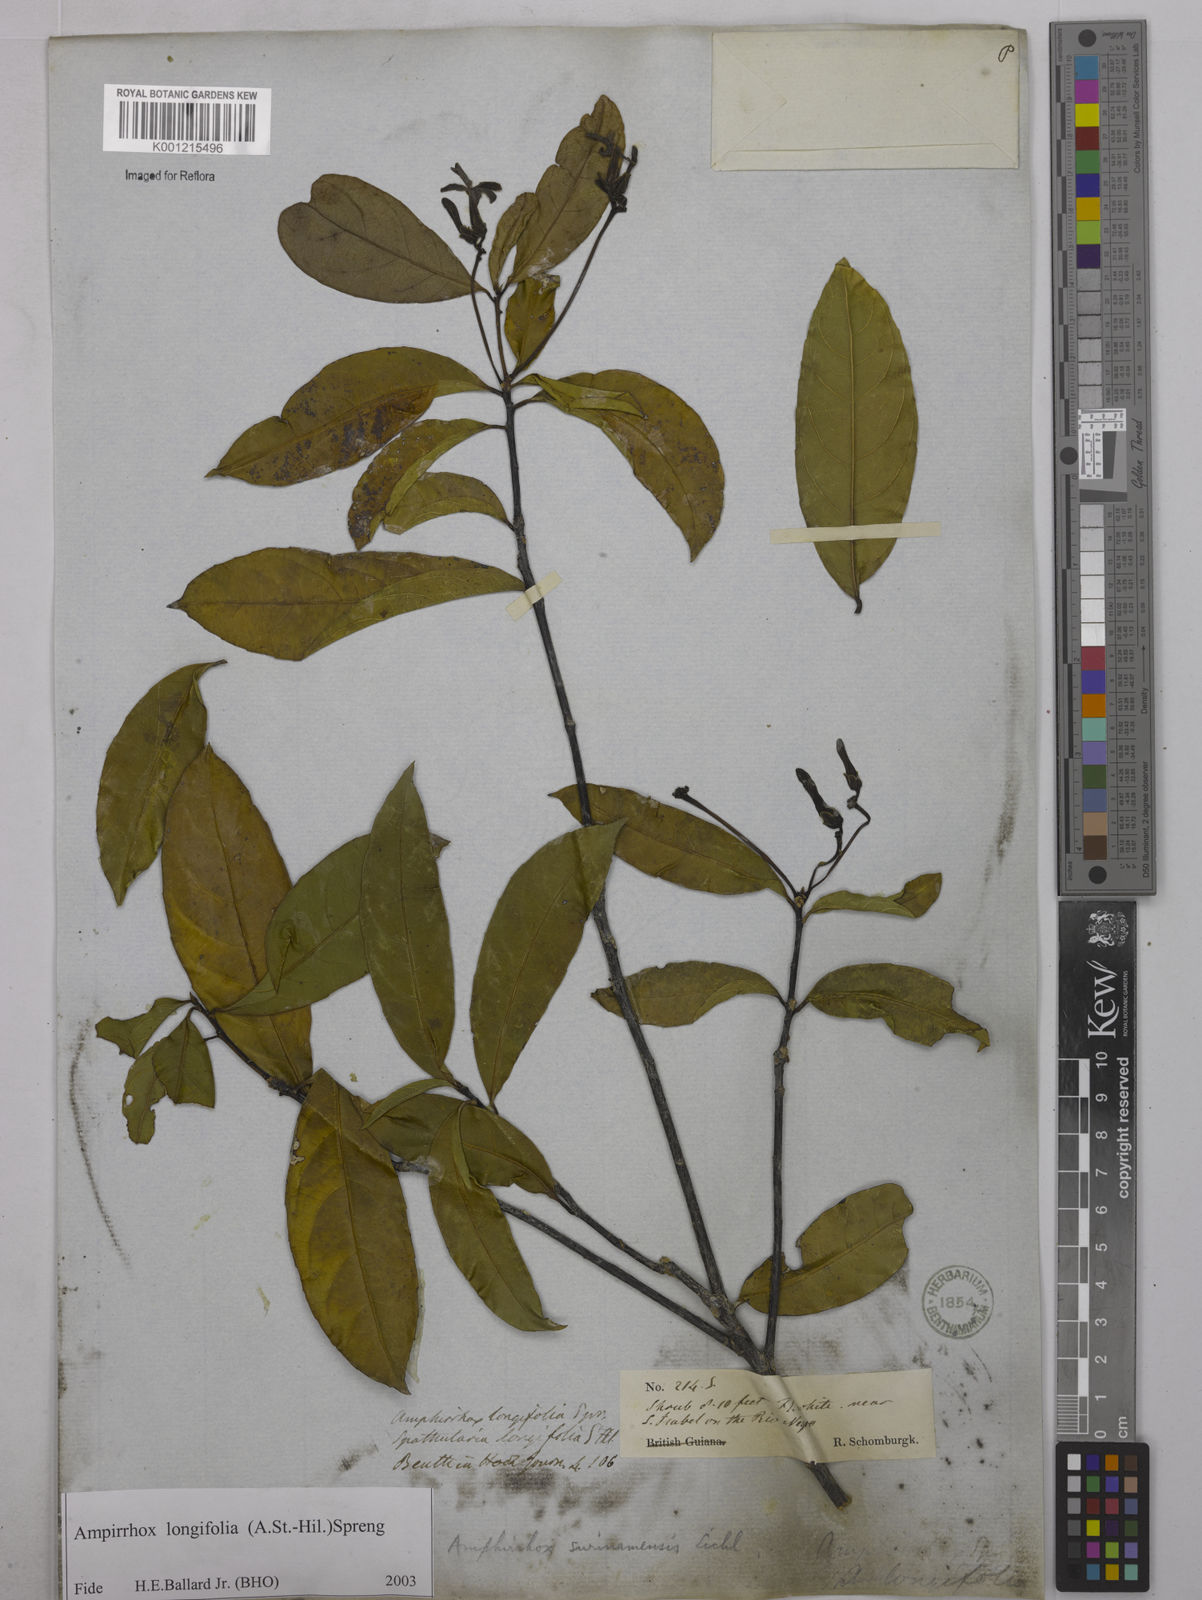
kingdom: Plantae
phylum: Tracheophyta
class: Magnoliopsida
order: Malpighiales
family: Violaceae
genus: Amphirrhox
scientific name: Amphirrhox longifolia
